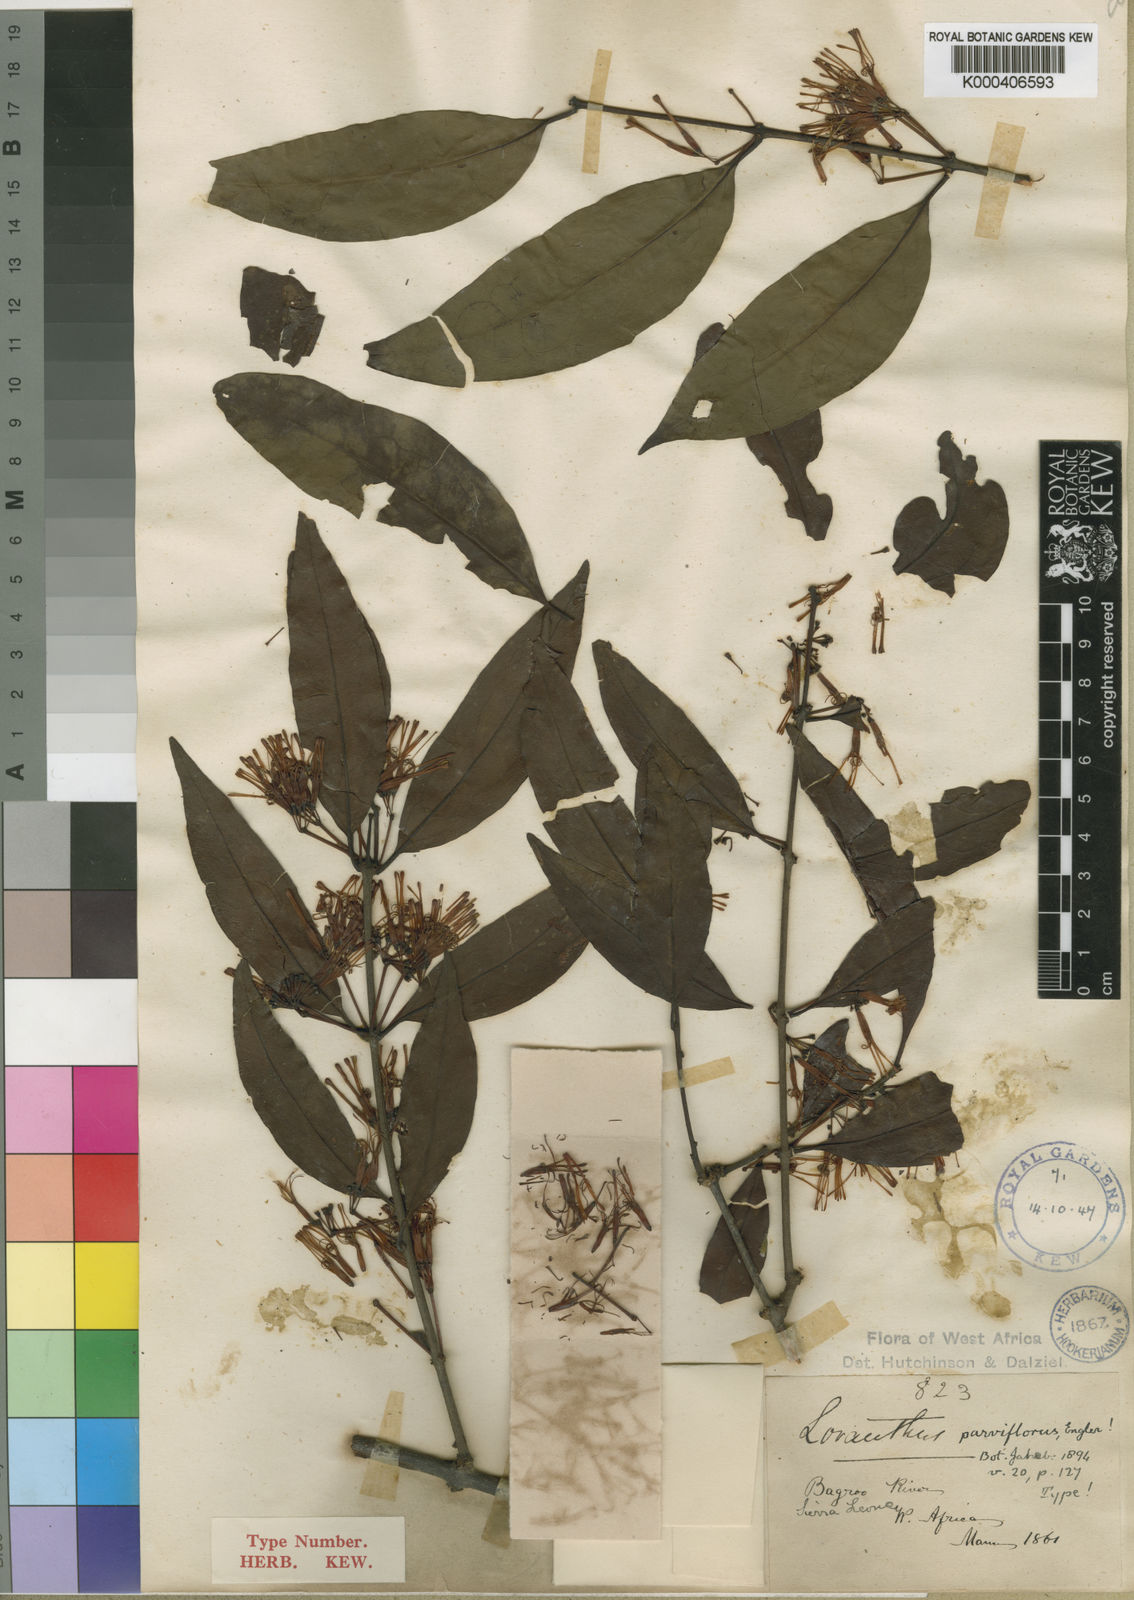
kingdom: Plantae
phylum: Tracheophyta
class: Magnoliopsida
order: Santalales
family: Loranthaceae
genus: Englerina
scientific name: Englerina parviflora
